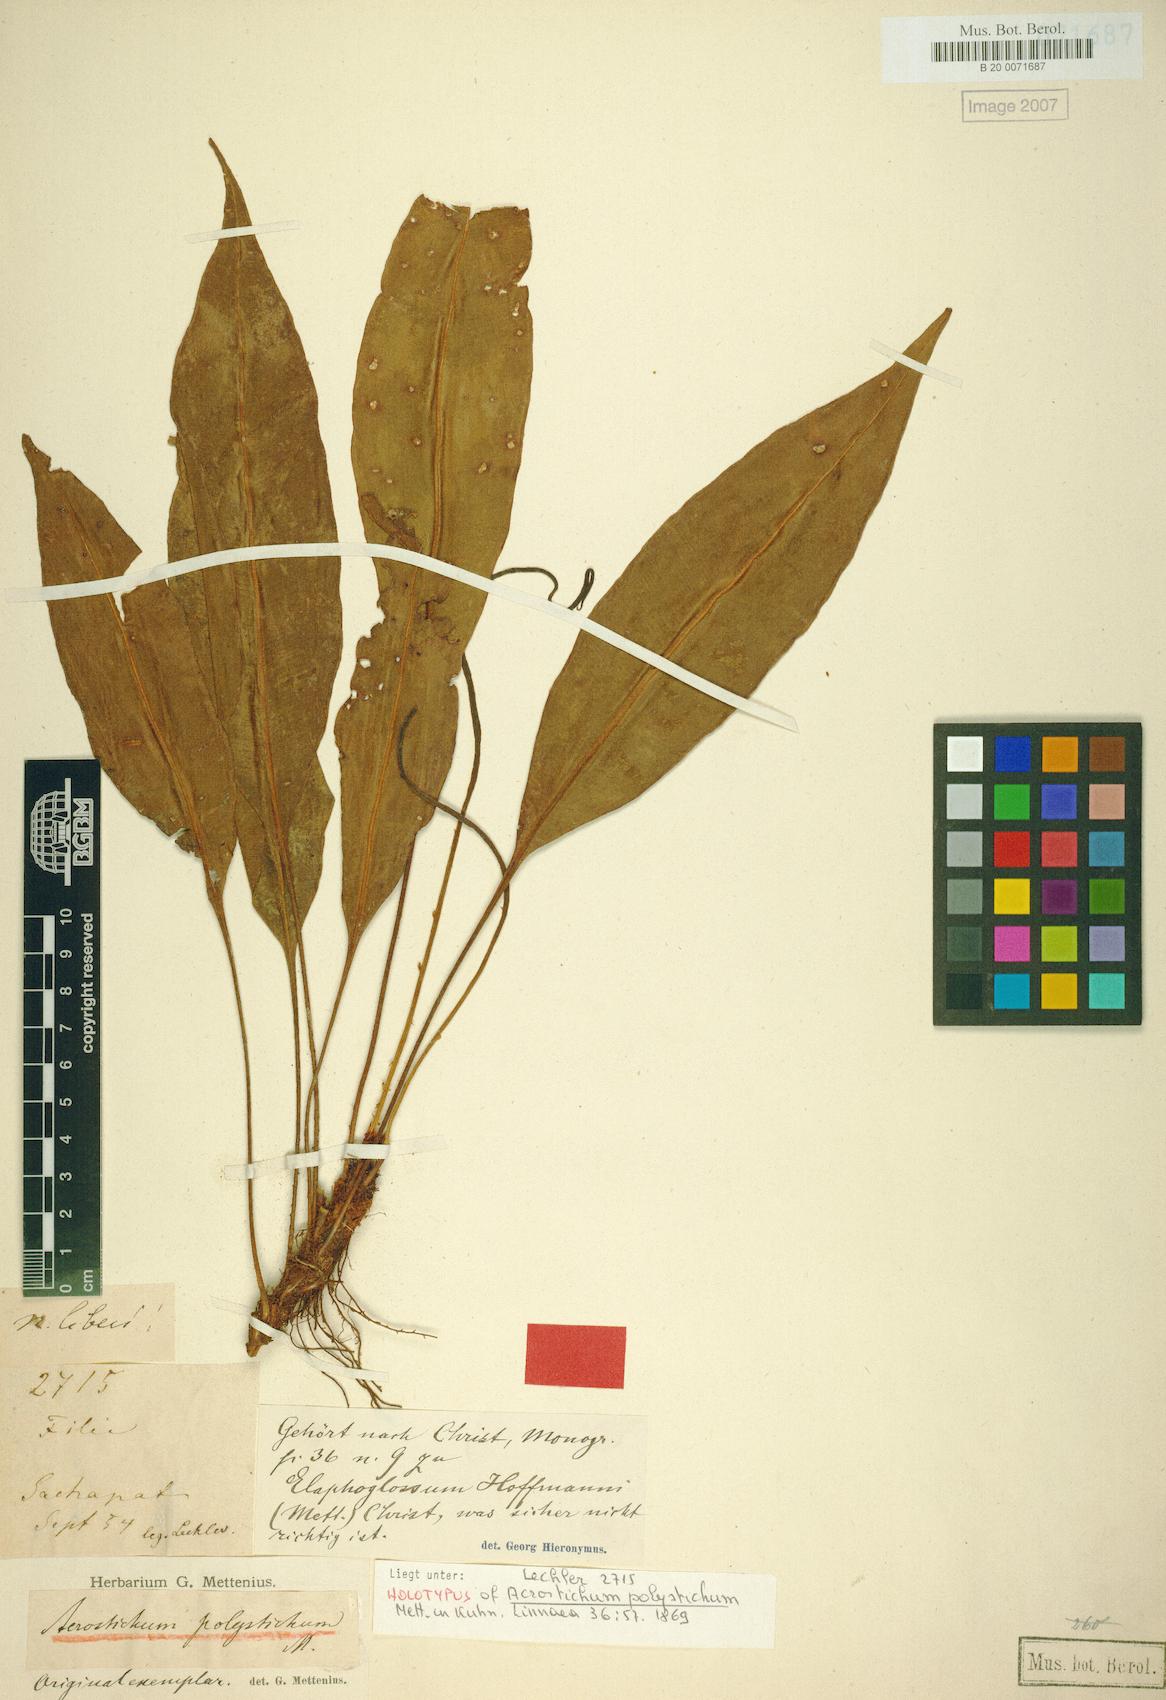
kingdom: Plantae
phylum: Tracheophyta
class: Polypodiopsida
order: Polypodiales
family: Dryopteridaceae
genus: Elaphoglossum
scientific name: Elaphoglossum hoffmannii
